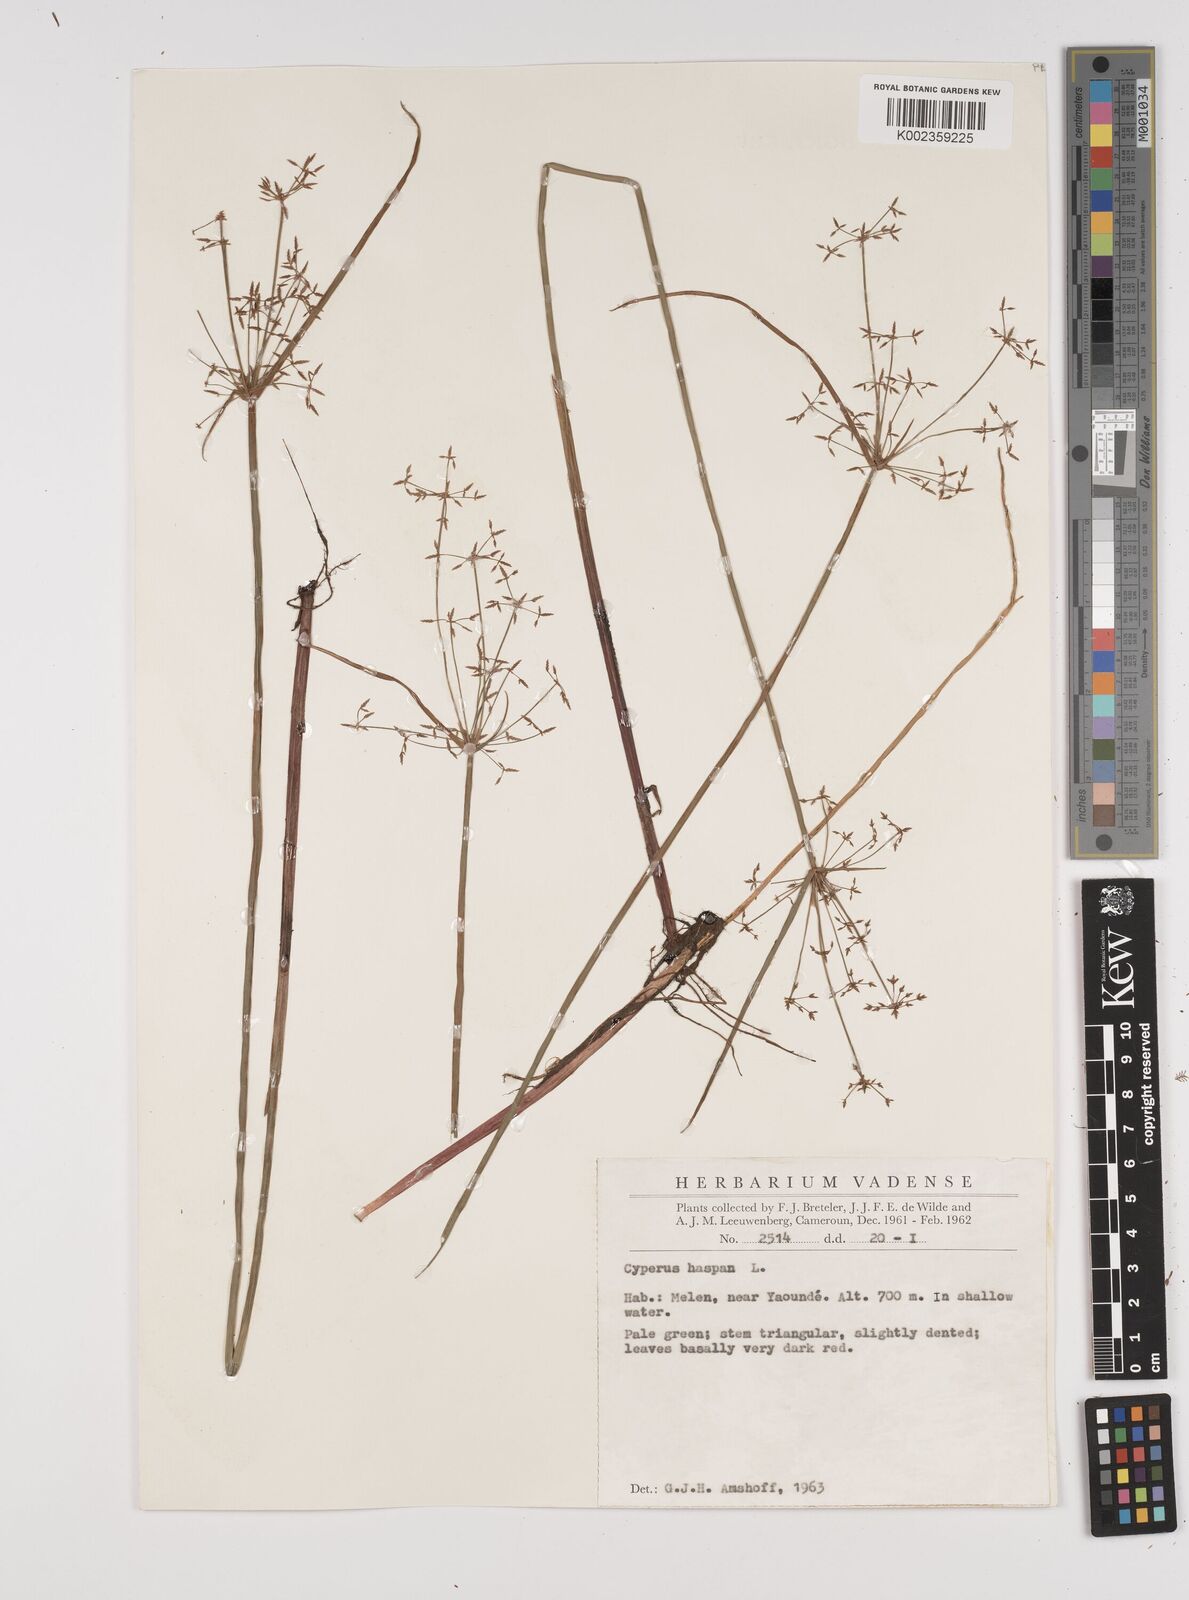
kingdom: Plantae
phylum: Tracheophyta
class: Liliopsida
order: Poales
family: Cyperaceae
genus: Cyperus
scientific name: Cyperus haspan
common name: Haspan flatsedge
